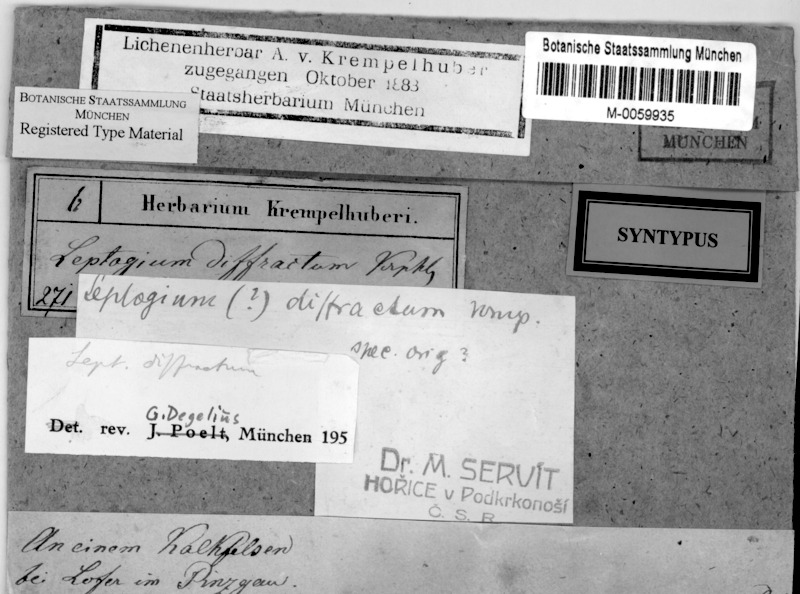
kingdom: Fungi
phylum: Ascomycota
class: Lecanoromycetes
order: Peltigerales
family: Collemataceae
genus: Pseudoleptogium
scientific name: Pseudoleptogium diffractum
